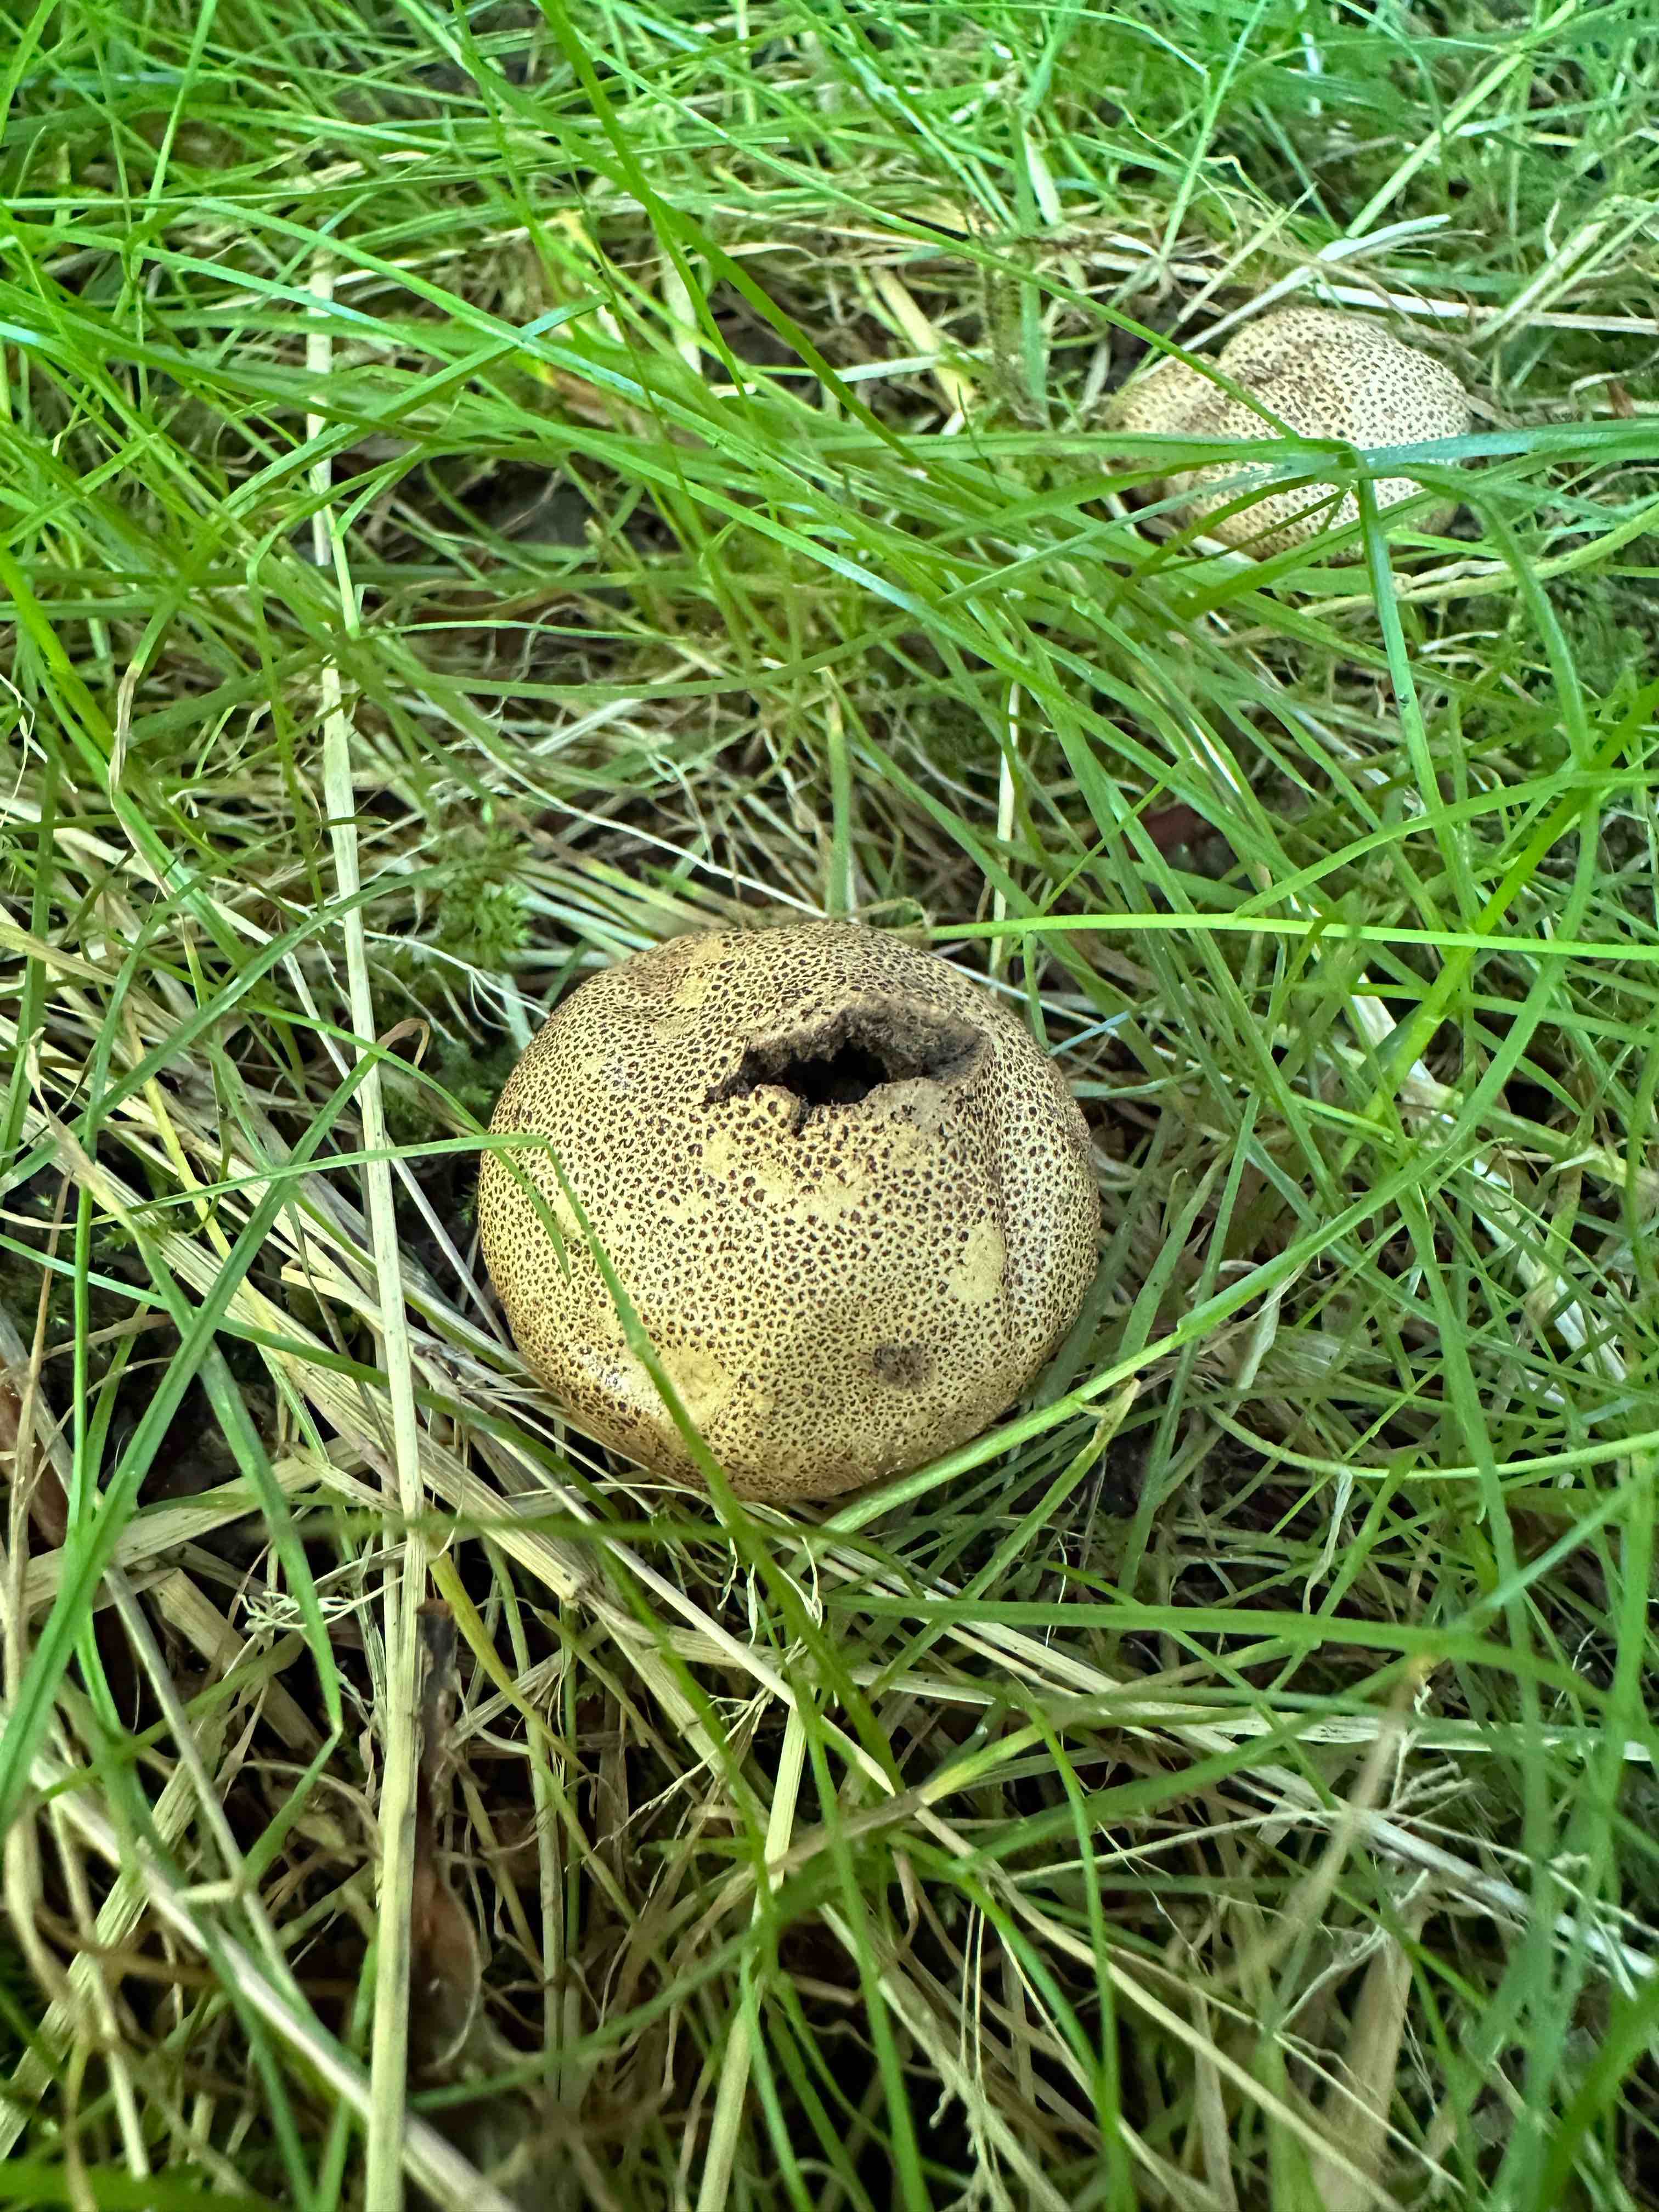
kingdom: Fungi
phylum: Basidiomycota
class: Agaricomycetes
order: Boletales
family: Sclerodermataceae
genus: Scleroderma
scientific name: Scleroderma verrucosum
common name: stilket bruskbold
